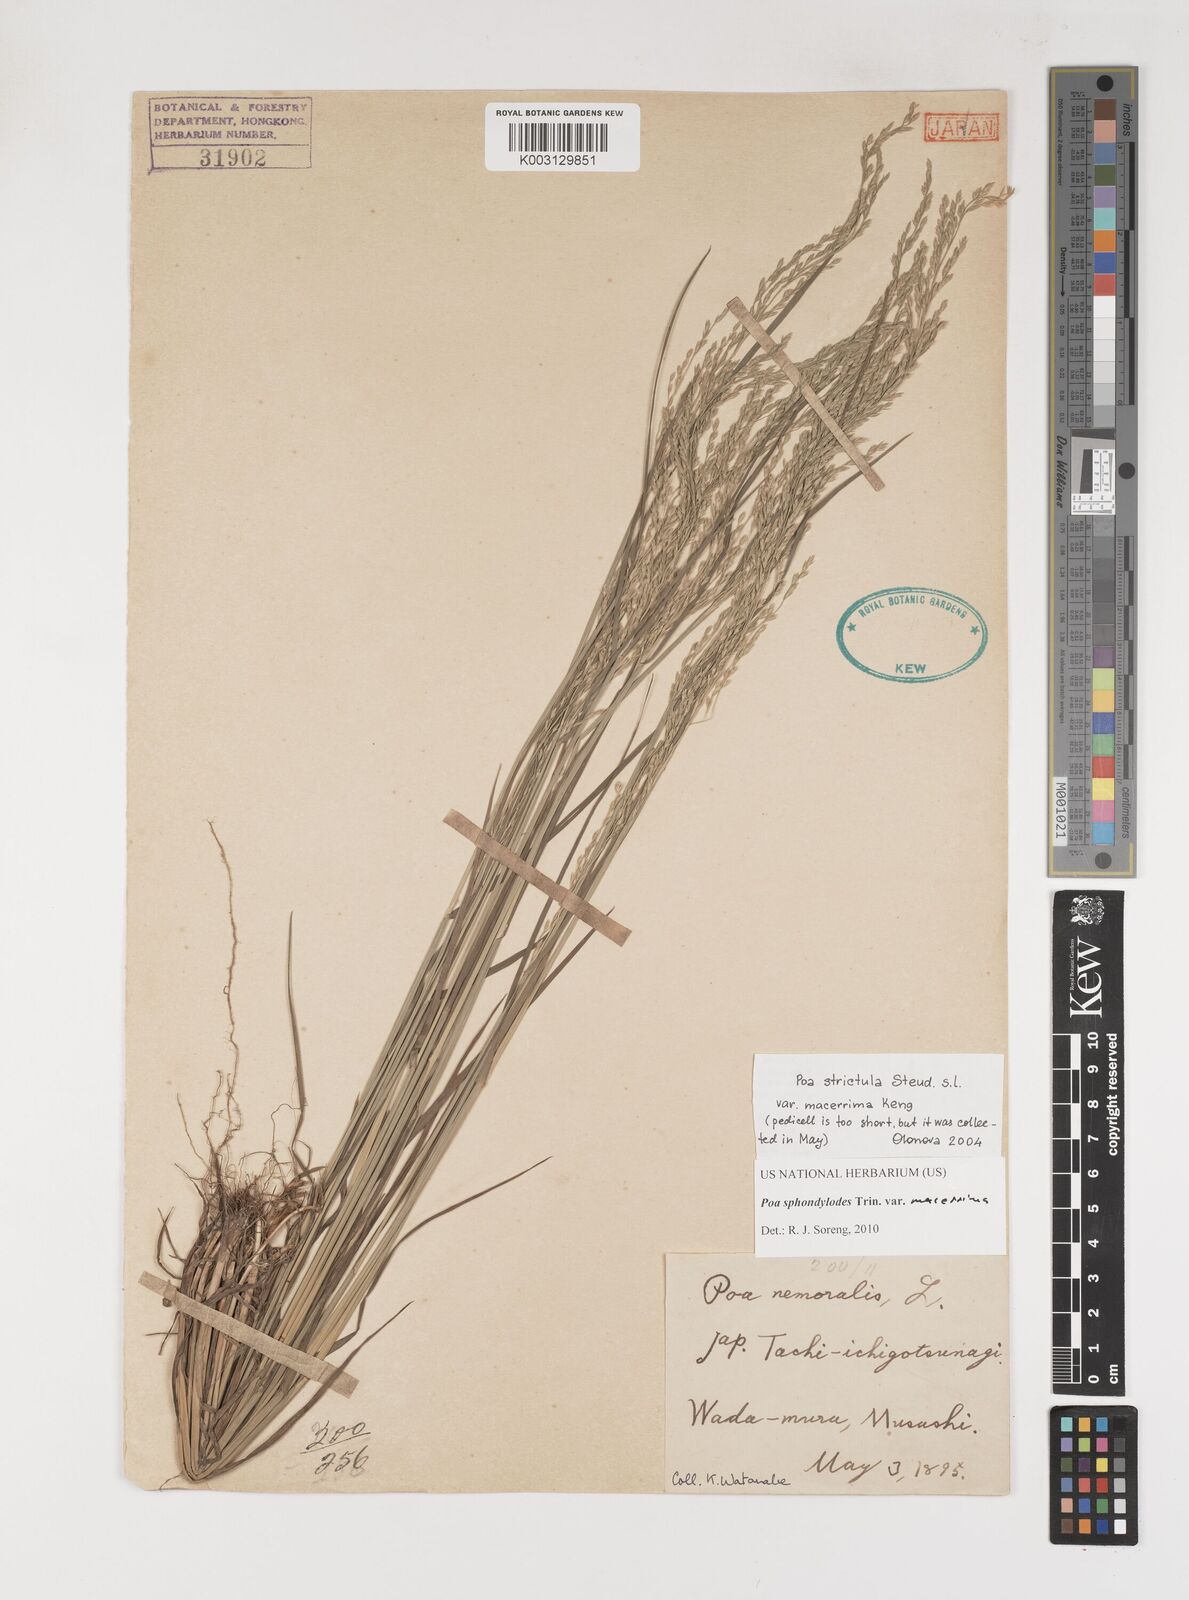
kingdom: Plantae
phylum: Tracheophyta
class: Liliopsida
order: Poales
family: Poaceae
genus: Poa
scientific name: Poa sphondylodes
